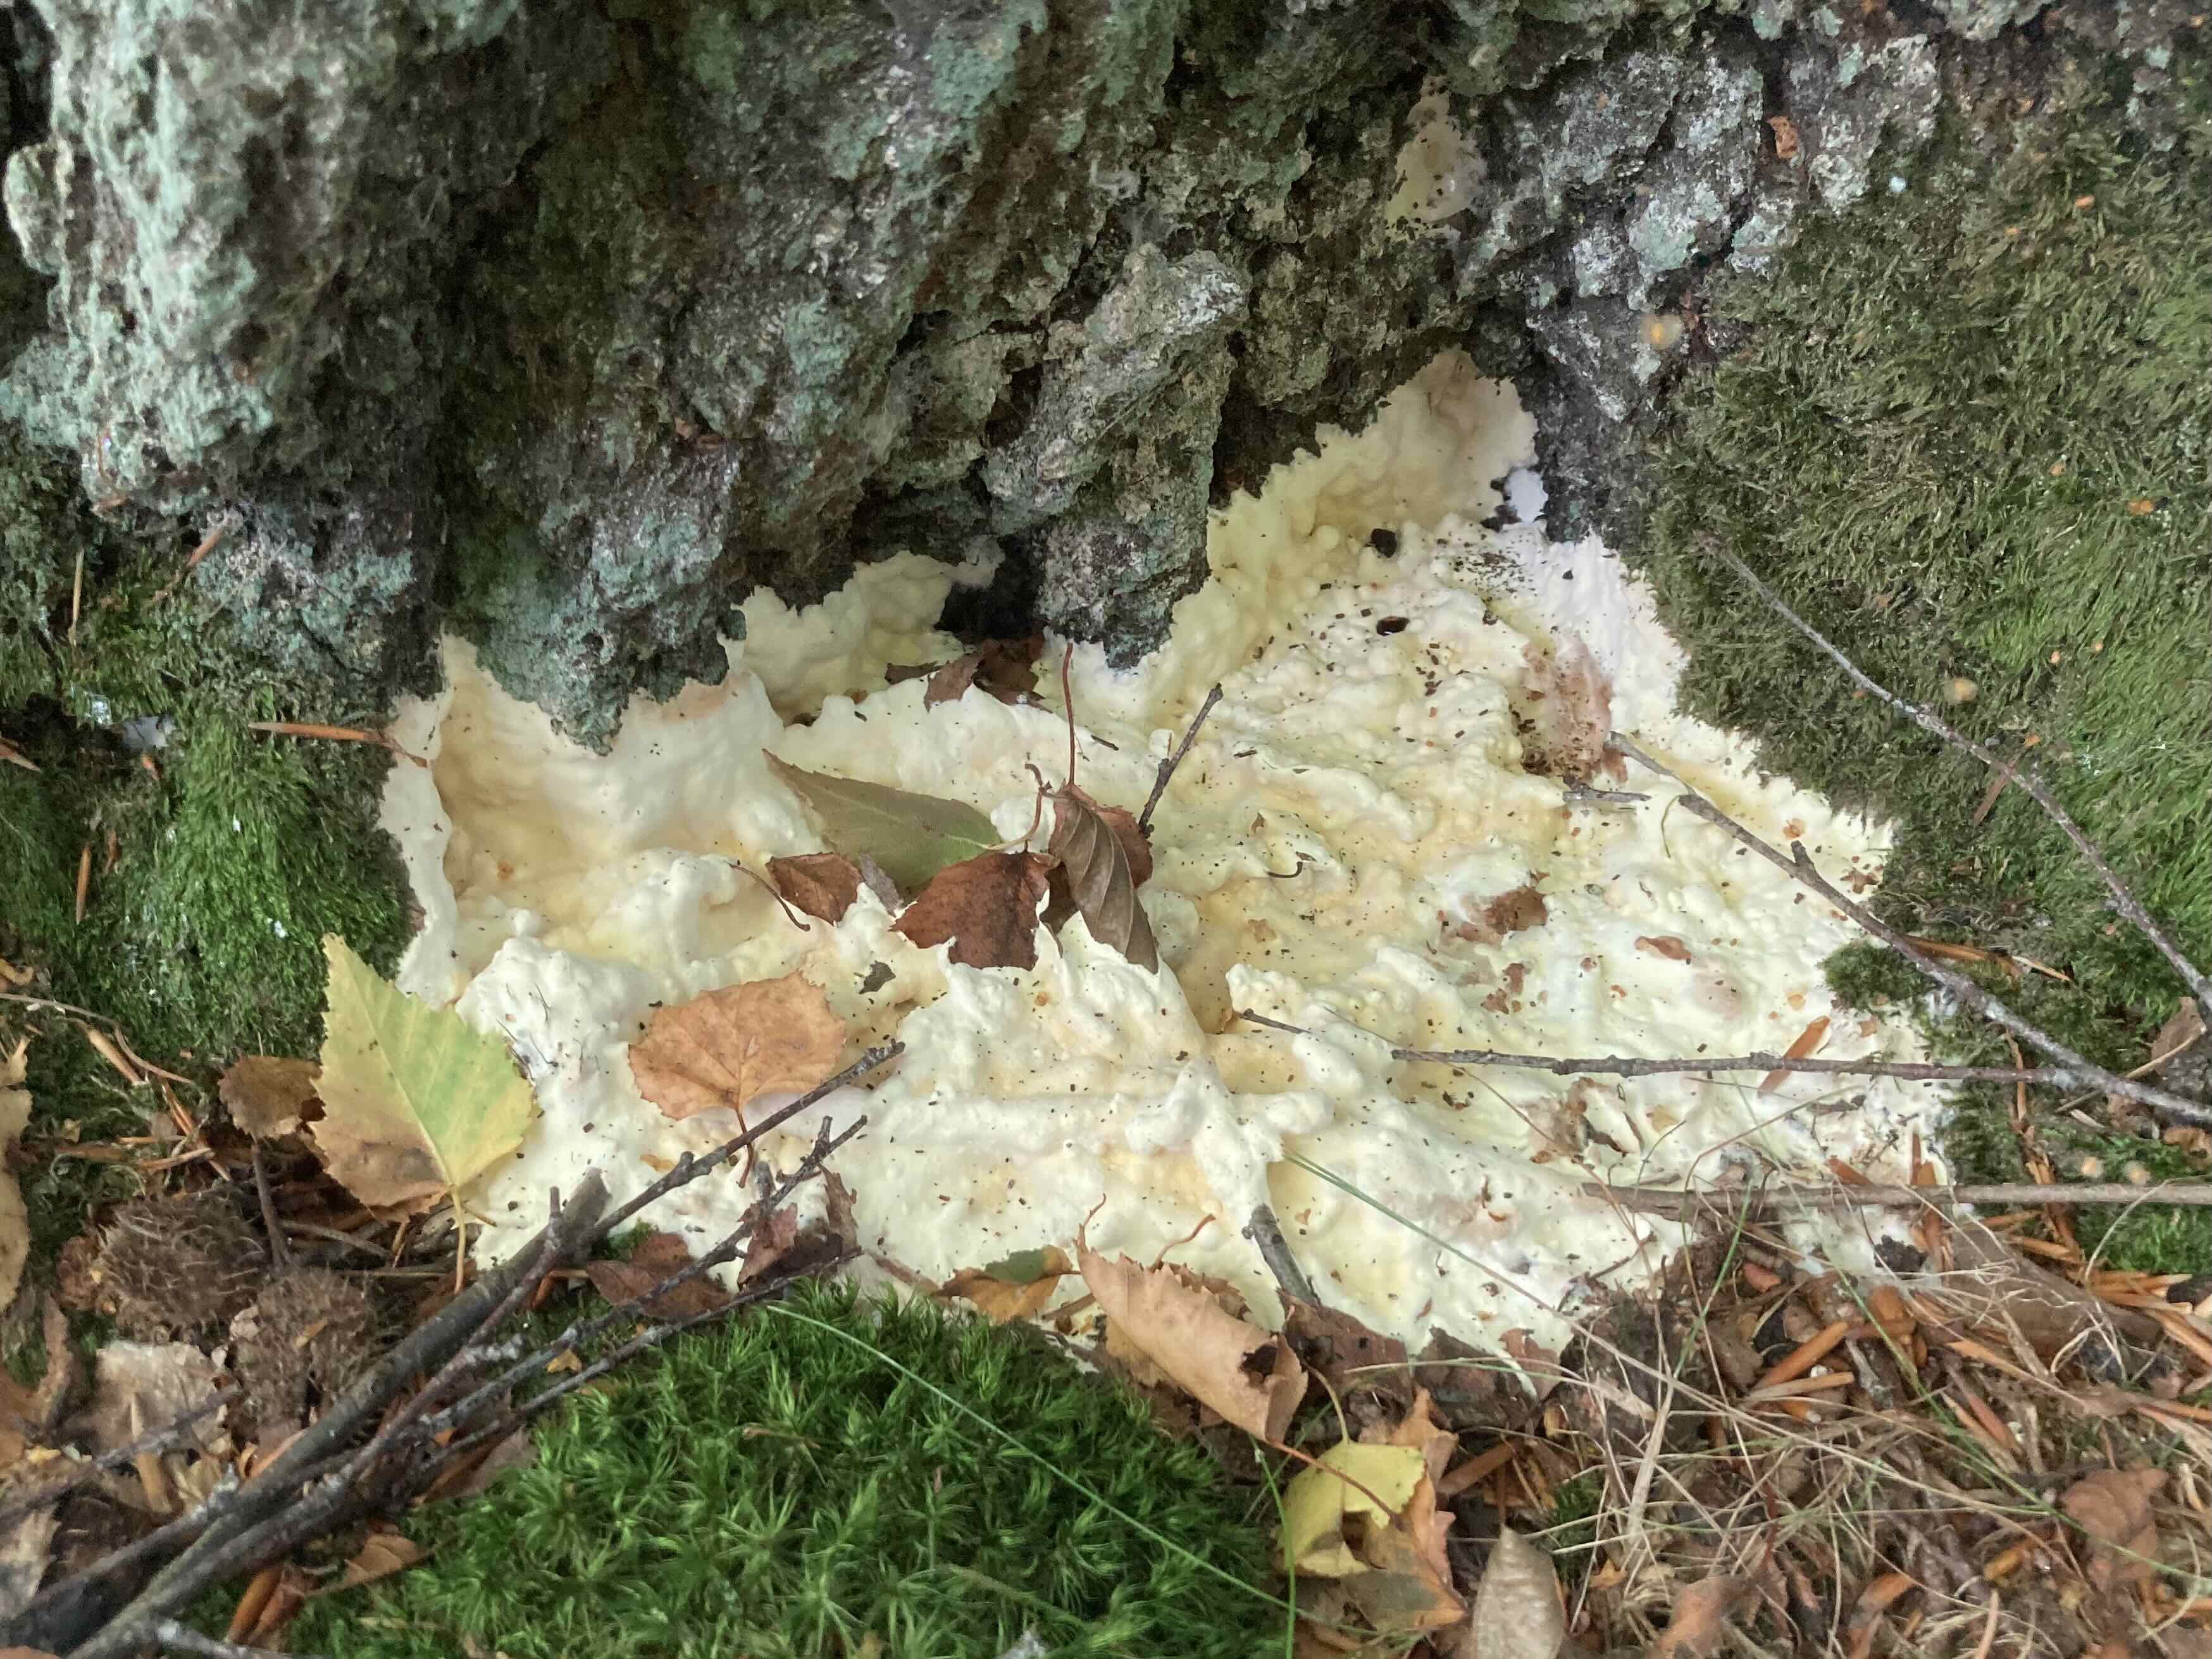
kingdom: Fungi
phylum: Basidiomycota
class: Agaricomycetes
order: Sebacinales
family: Sebacinaceae
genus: Sebacina
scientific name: Sebacina
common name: bævretalg
